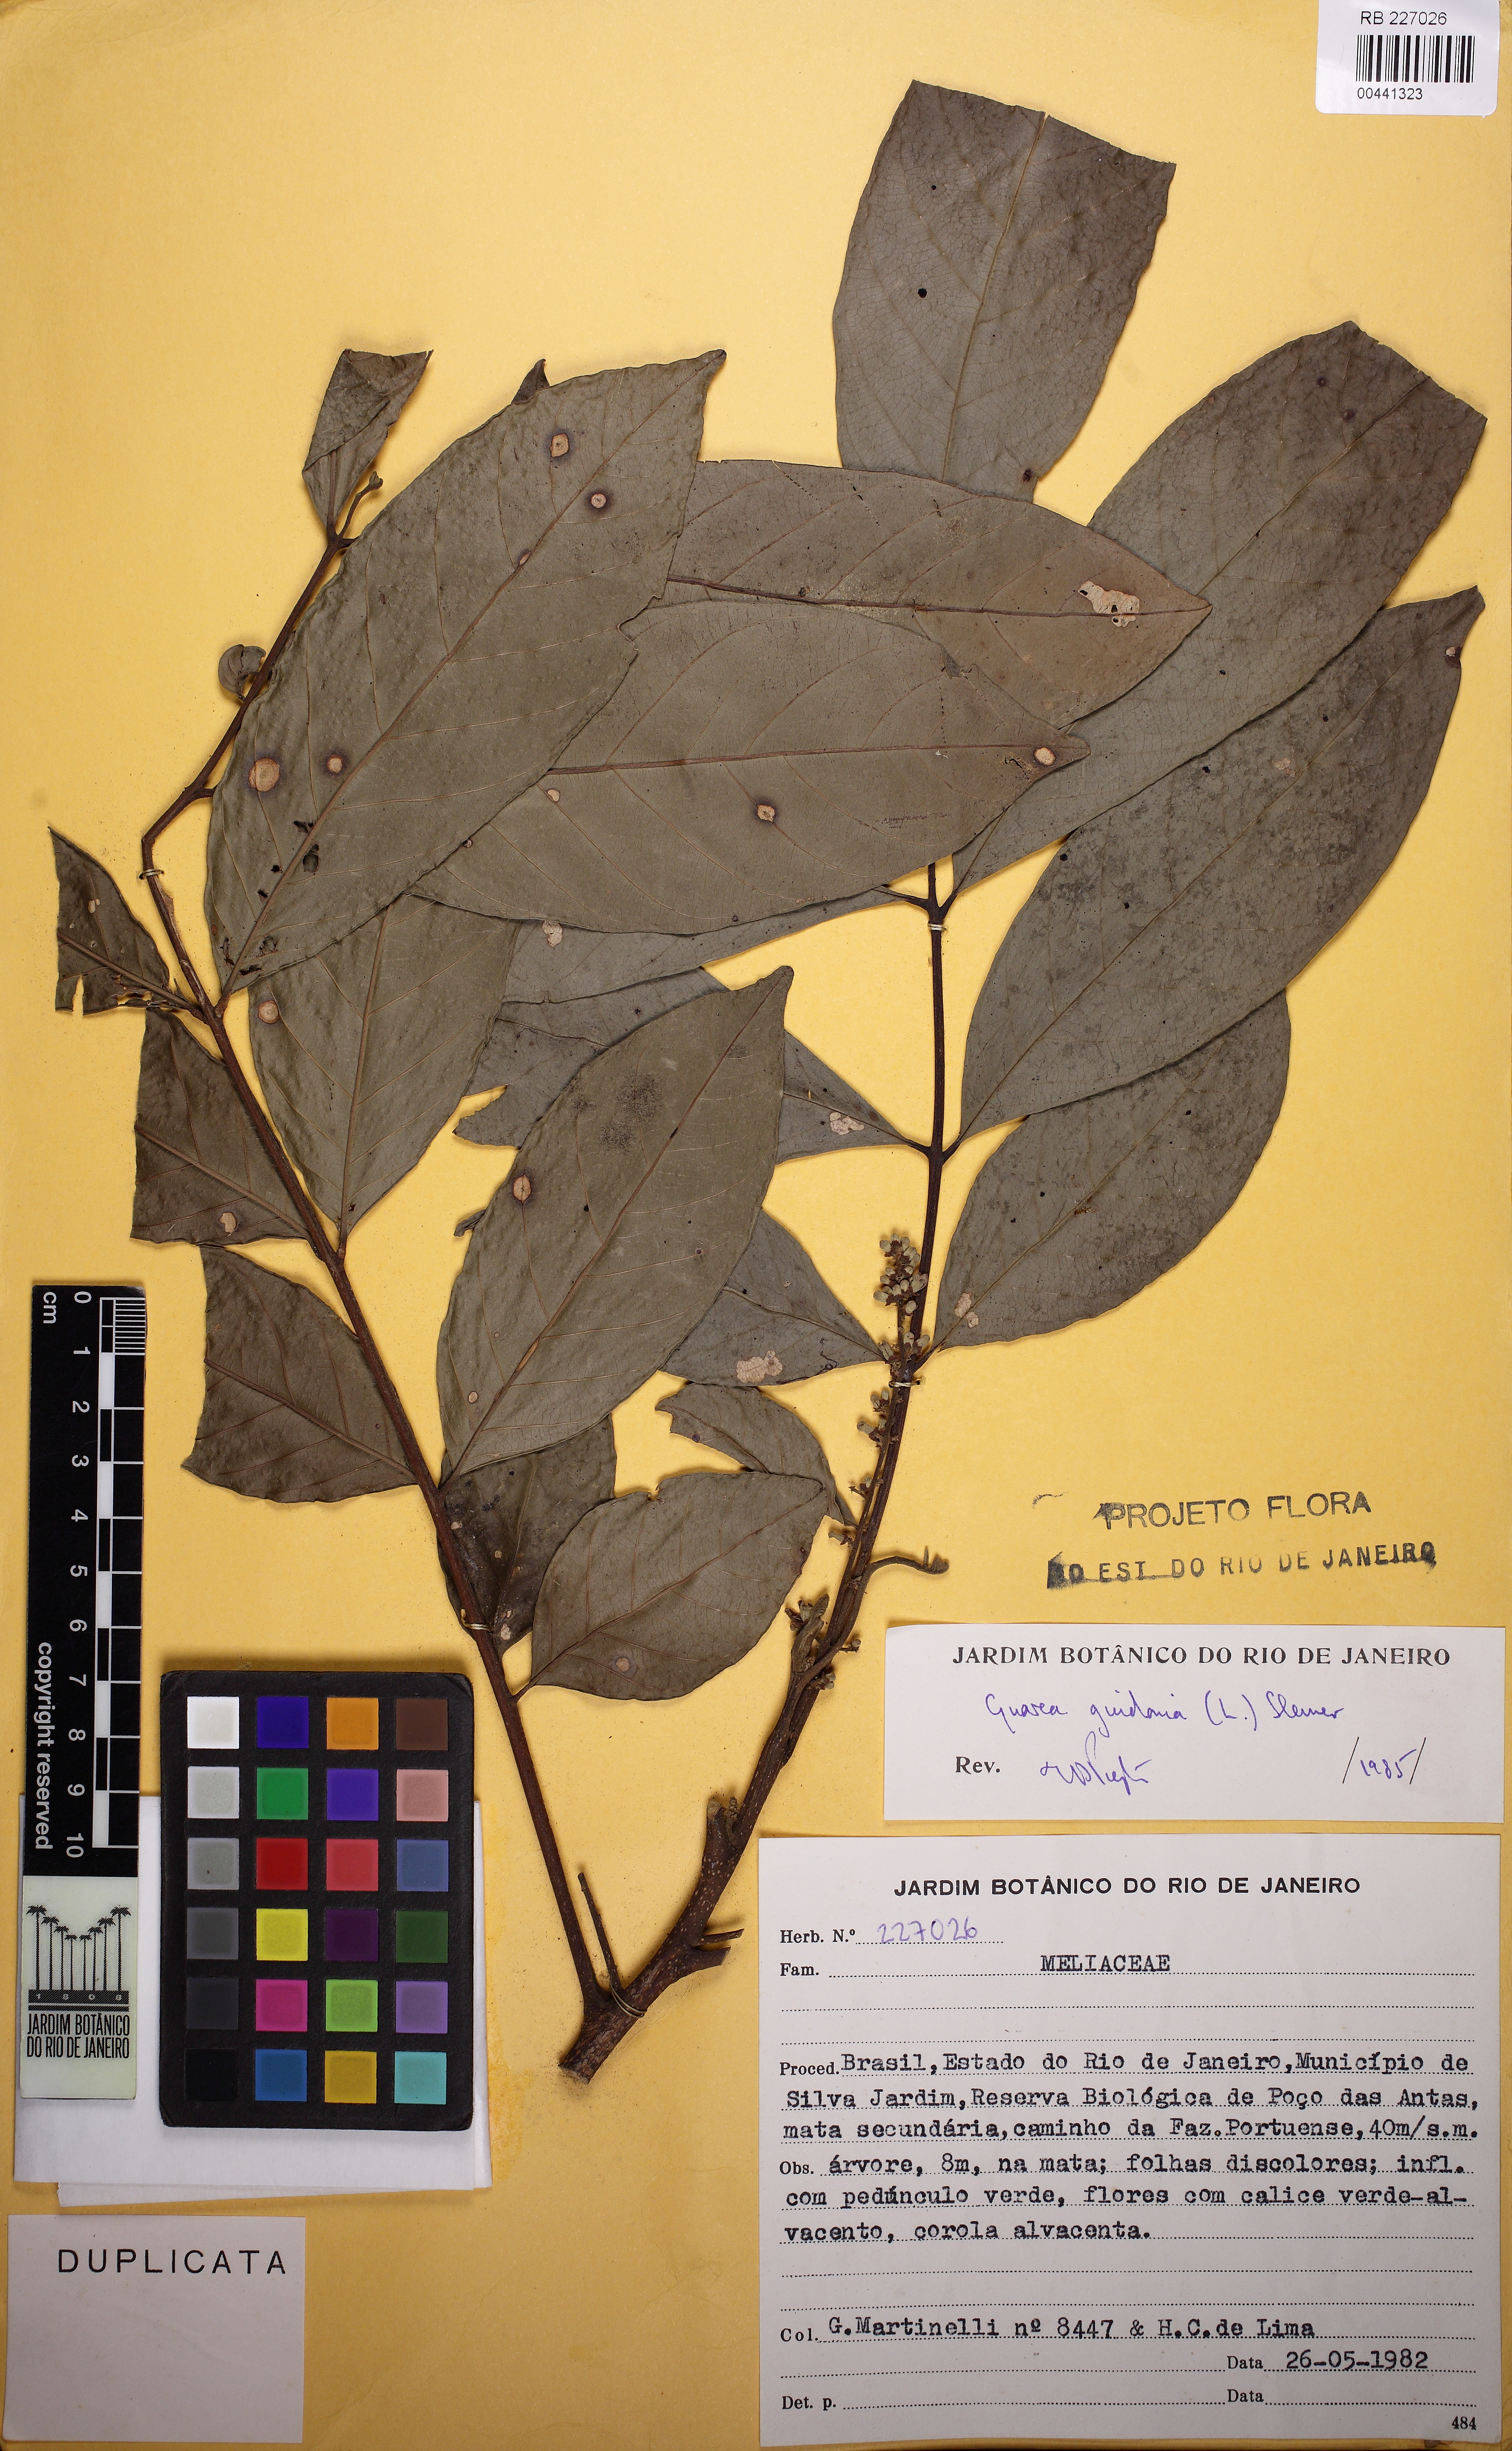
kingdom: Plantae
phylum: Tracheophyta
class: Magnoliopsida
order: Sapindales
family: Meliaceae
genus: Guarea
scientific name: Guarea guidonia
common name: American muskwood
